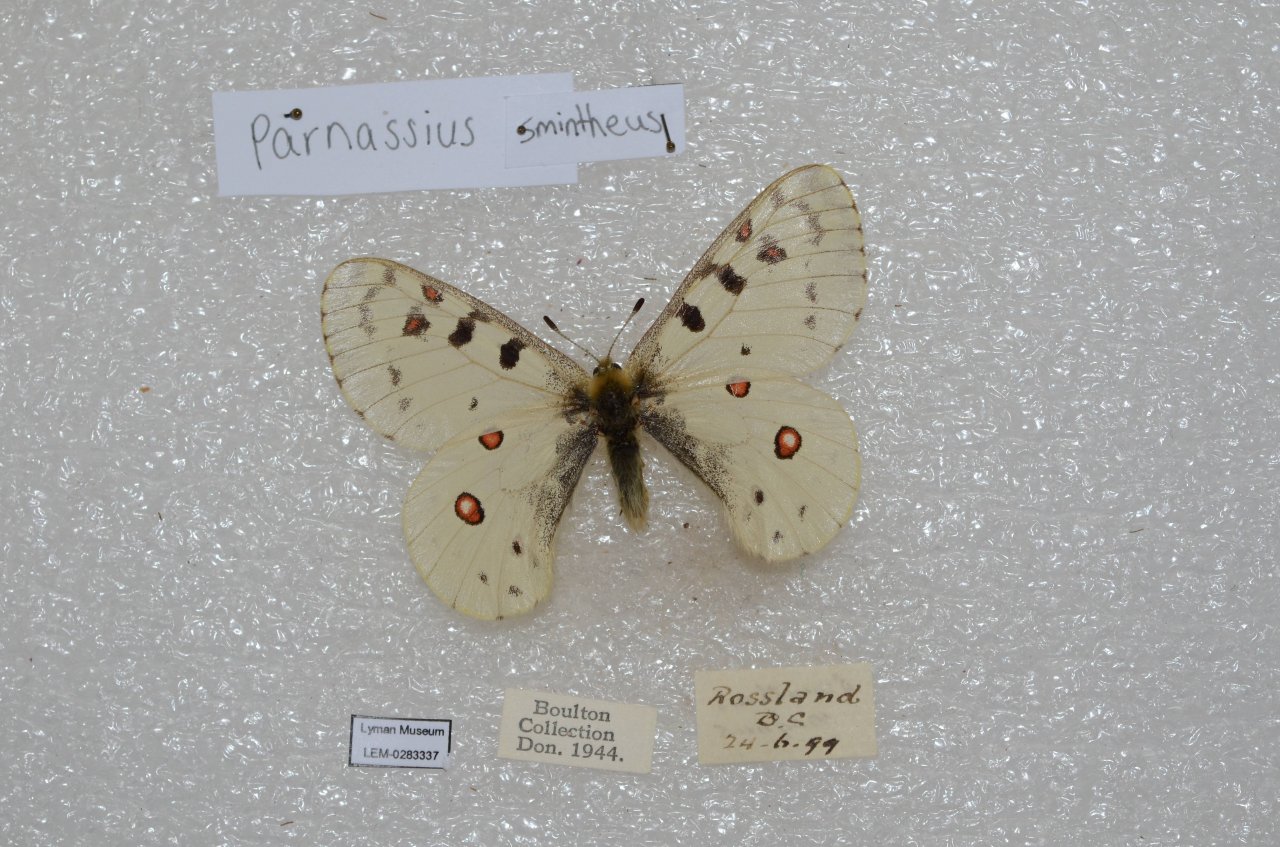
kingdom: Animalia
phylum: Arthropoda
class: Insecta
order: Lepidoptera
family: Papilionidae
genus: Parnassius
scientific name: Parnassius smintheus
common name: Rocky Mountain Parnassian
